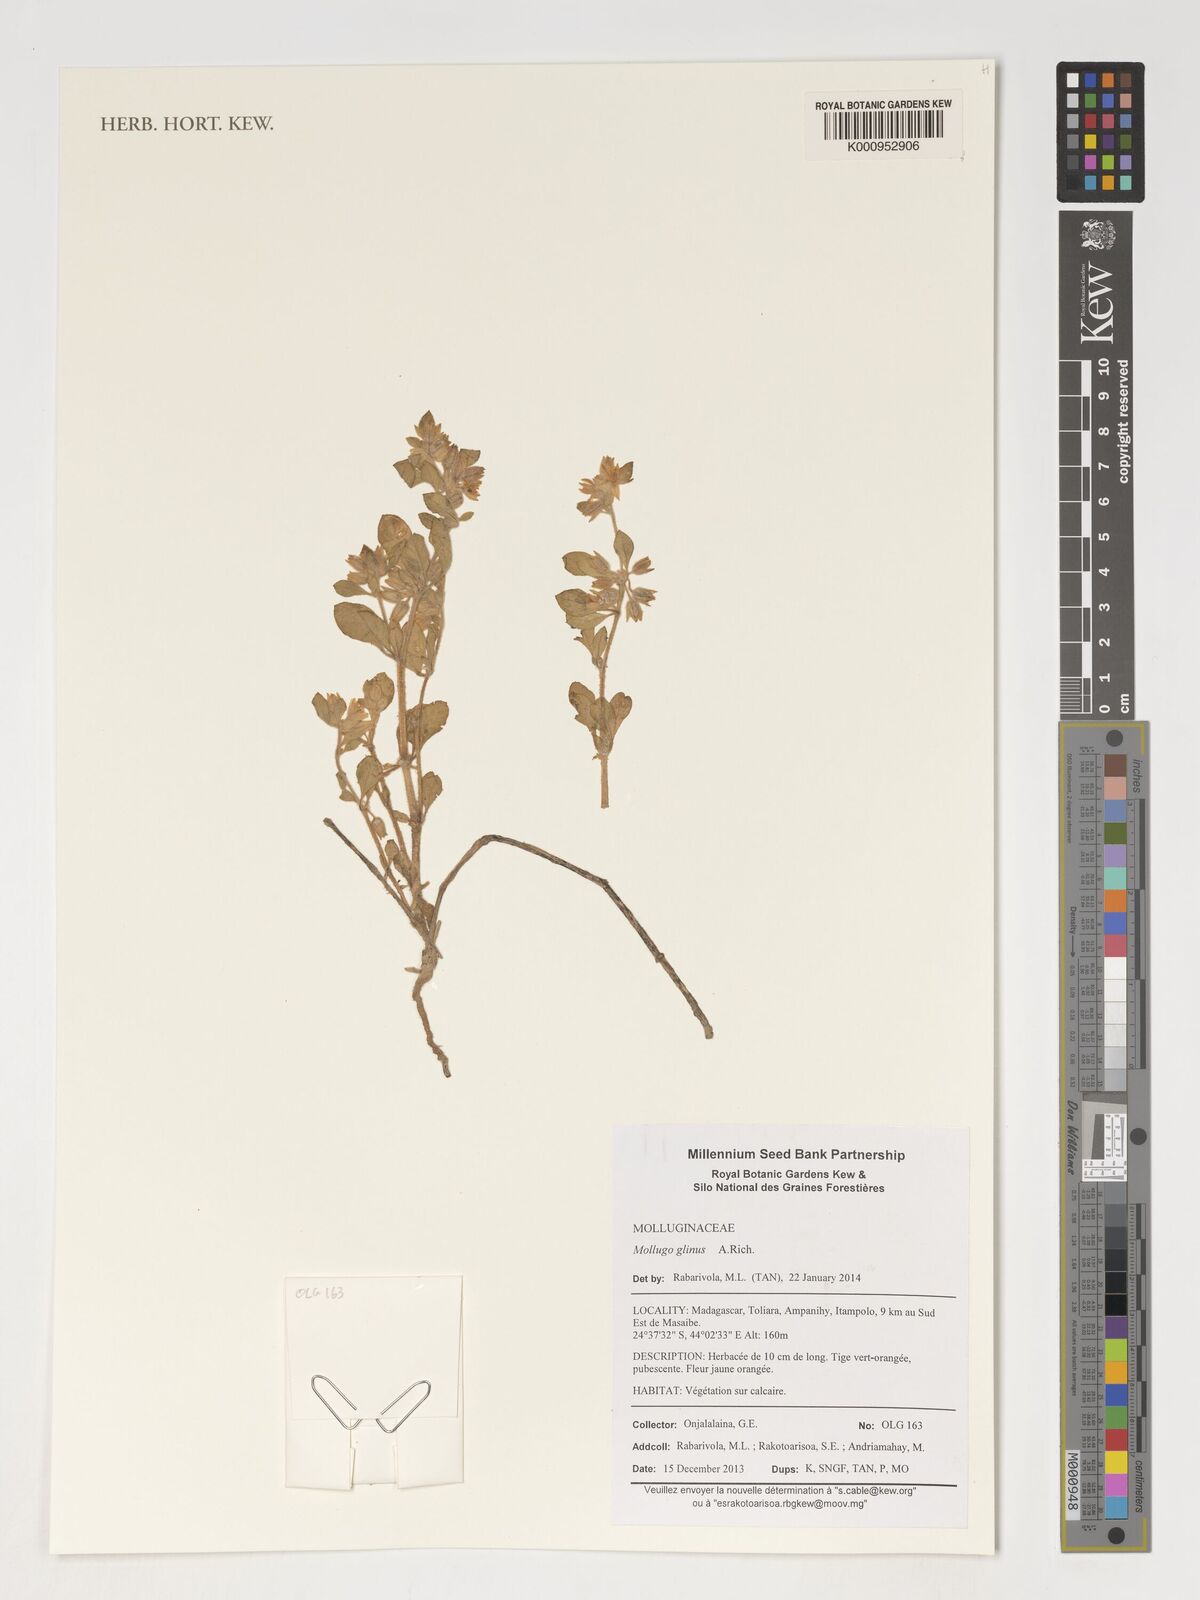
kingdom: Plantae
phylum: Tracheophyta
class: Magnoliopsida
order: Caryophyllales
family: Molluginaceae
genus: Glinus
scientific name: Glinus lotoides
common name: Lotus sweetjuice
